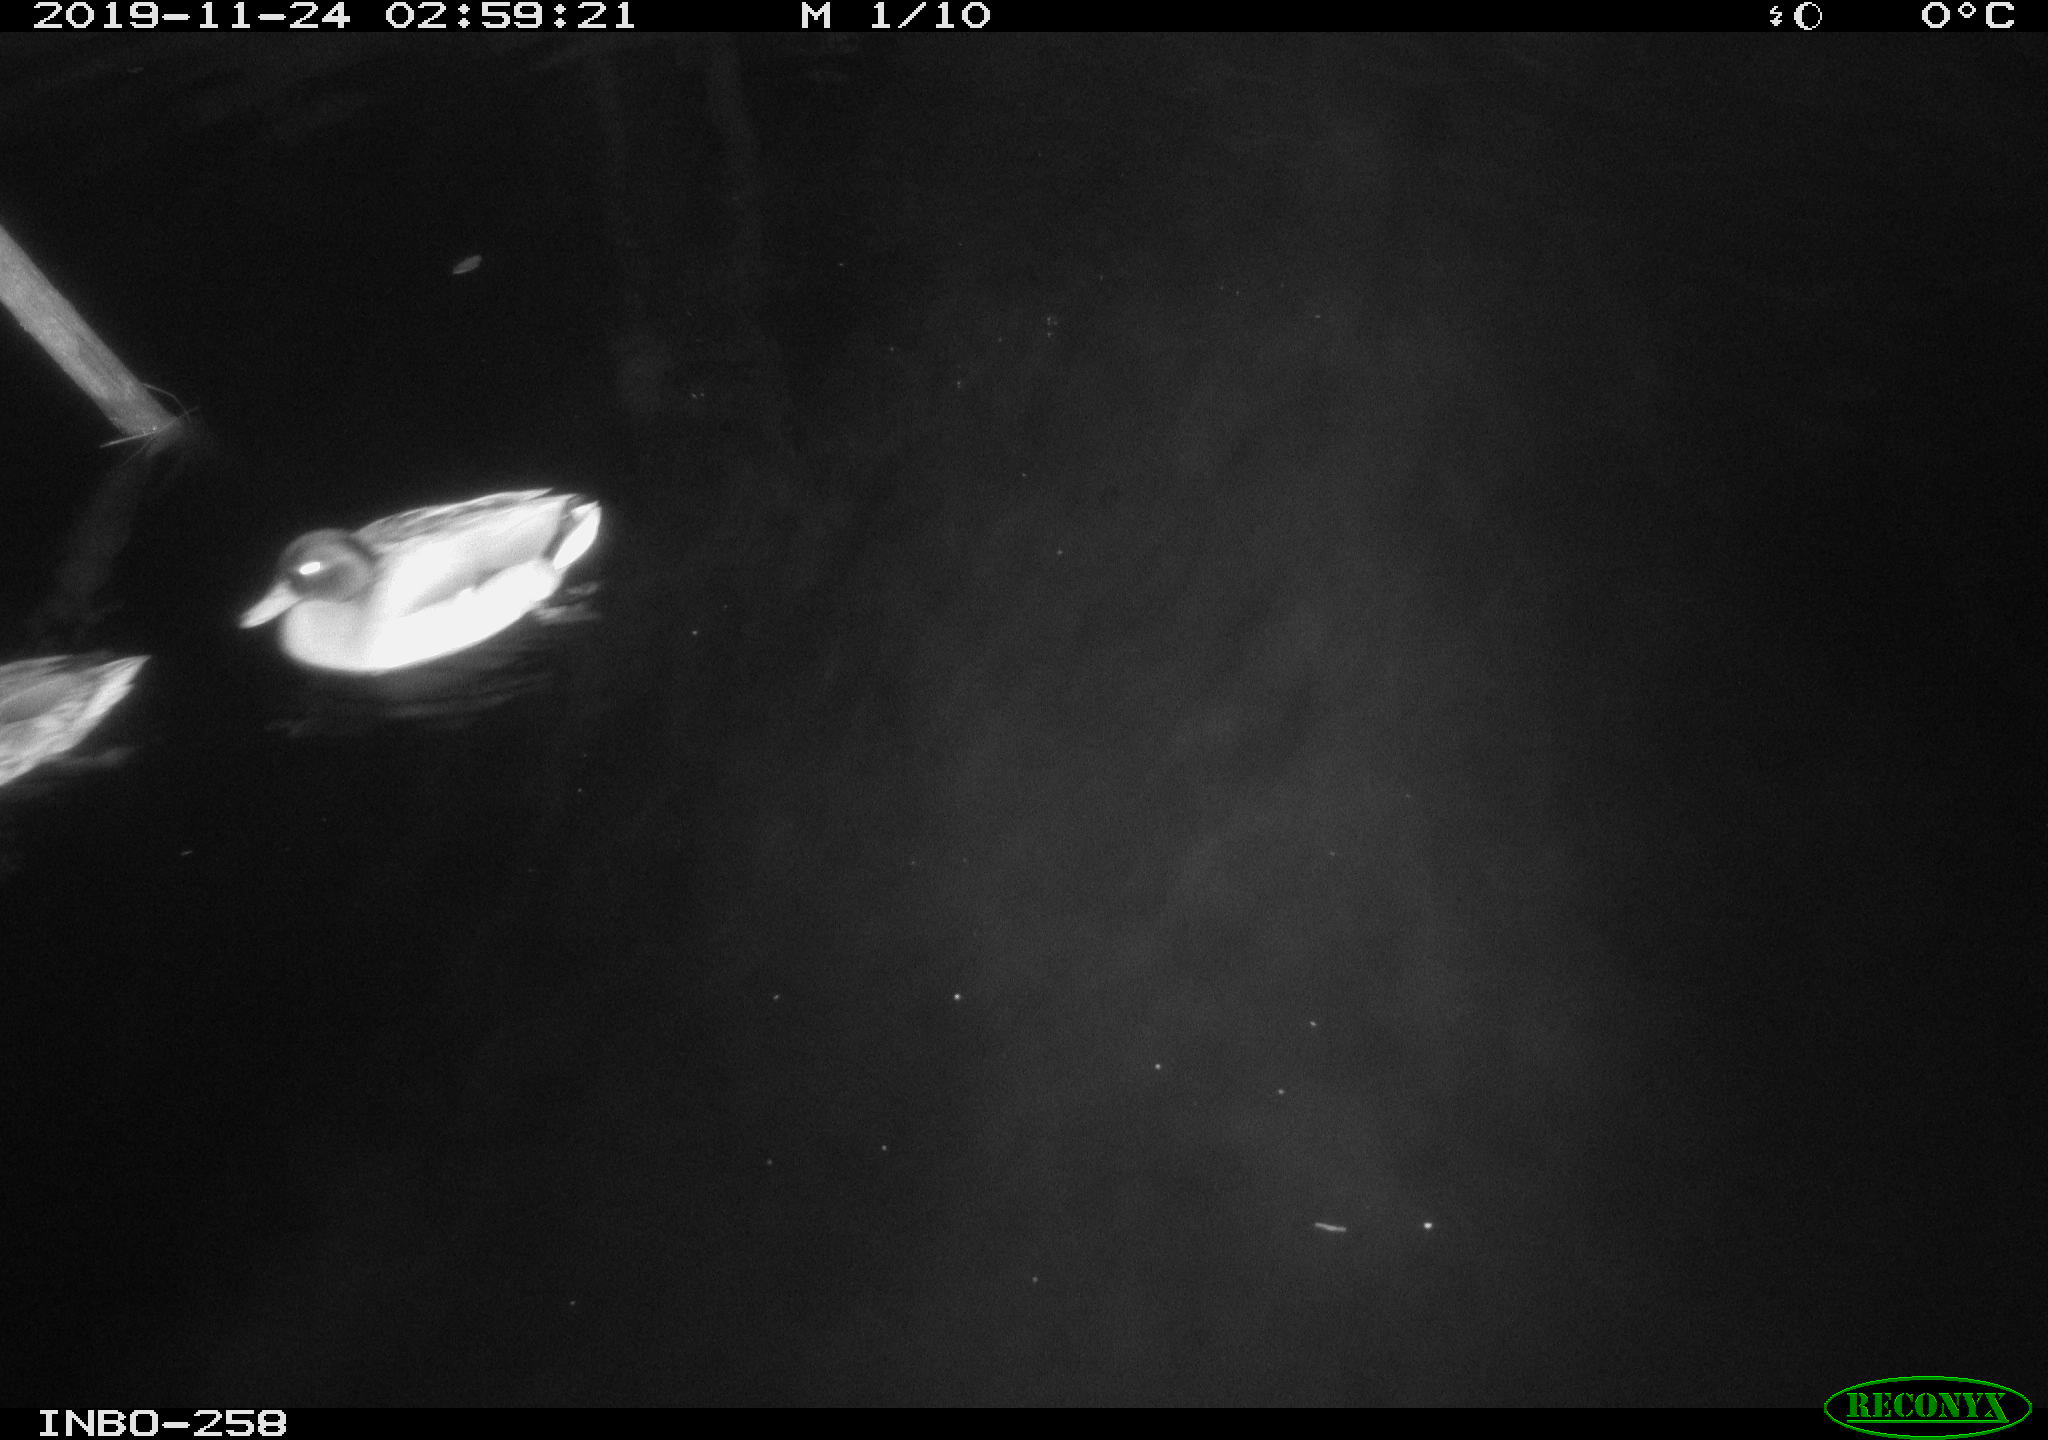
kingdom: Animalia
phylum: Chordata
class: Aves
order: Anseriformes
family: Anatidae
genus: Anas
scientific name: Anas platyrhynchos
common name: Mallard
